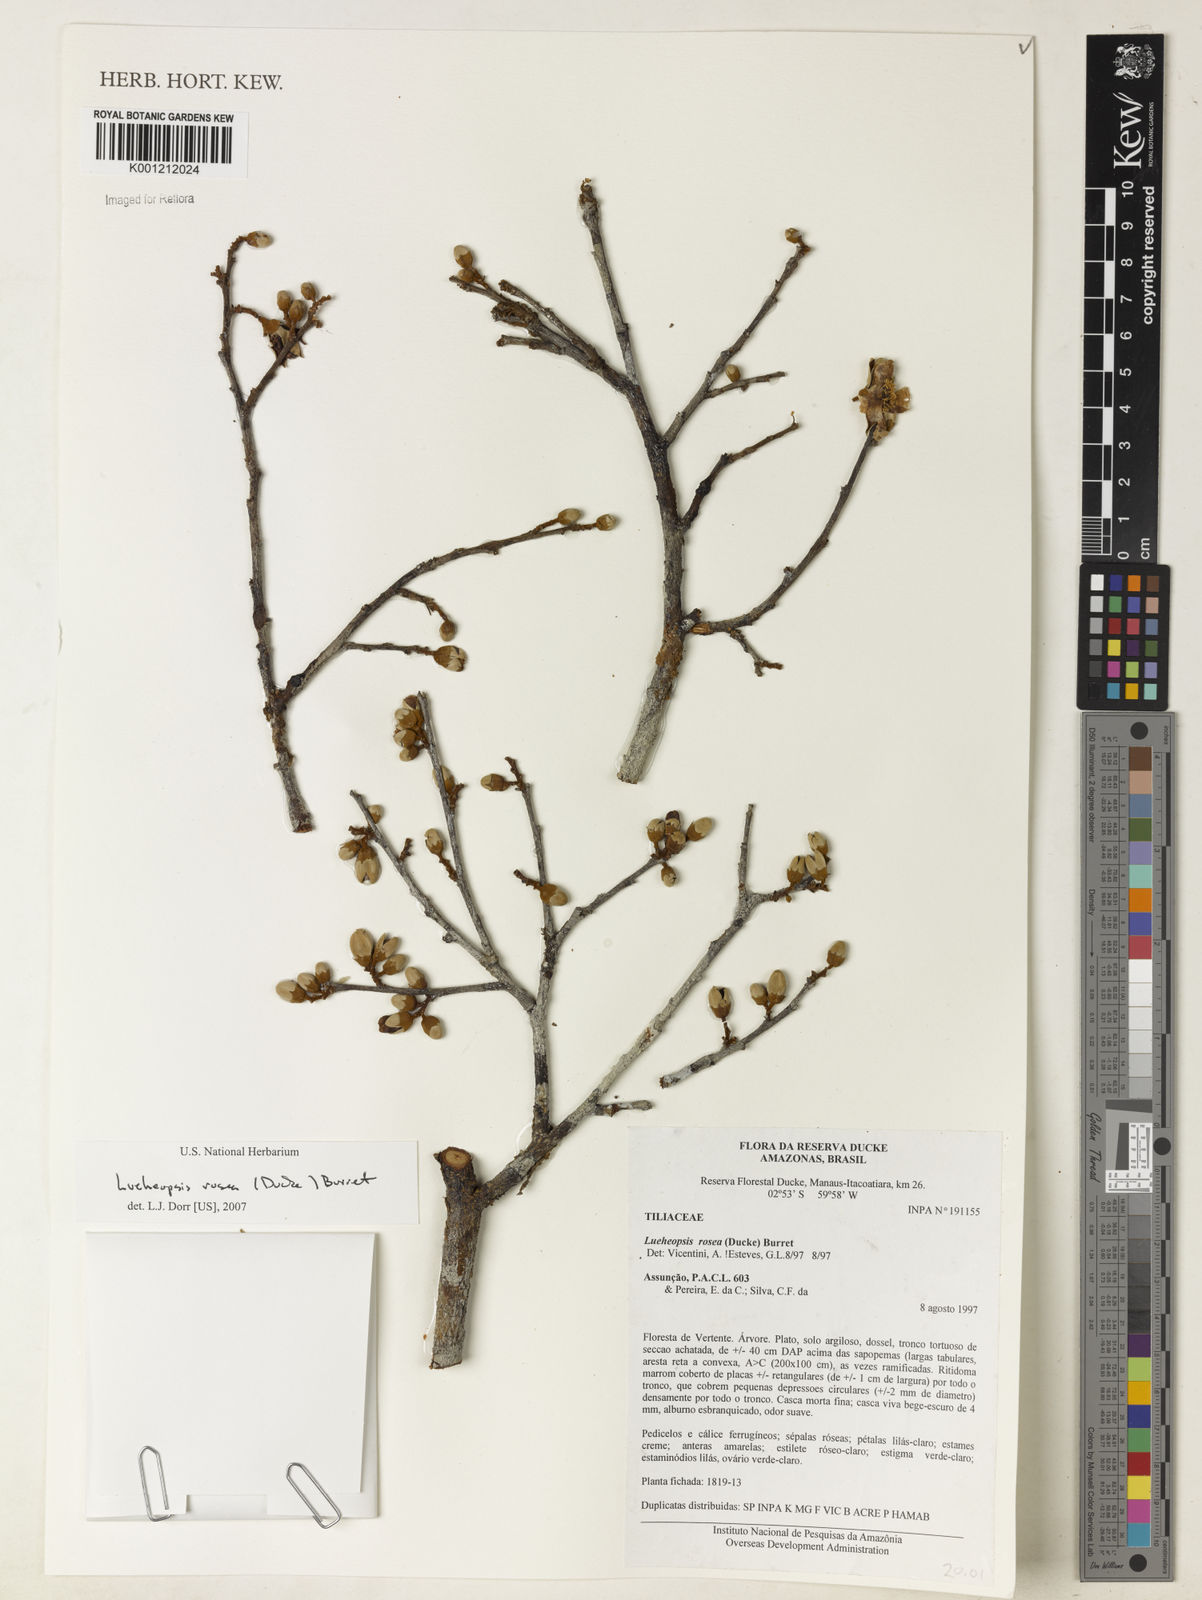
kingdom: Plantae
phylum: Tracheophyta
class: Magnoliopsida
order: Malvales
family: Malvaceae
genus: Lueheopsis
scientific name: Lueheopsis rosea
